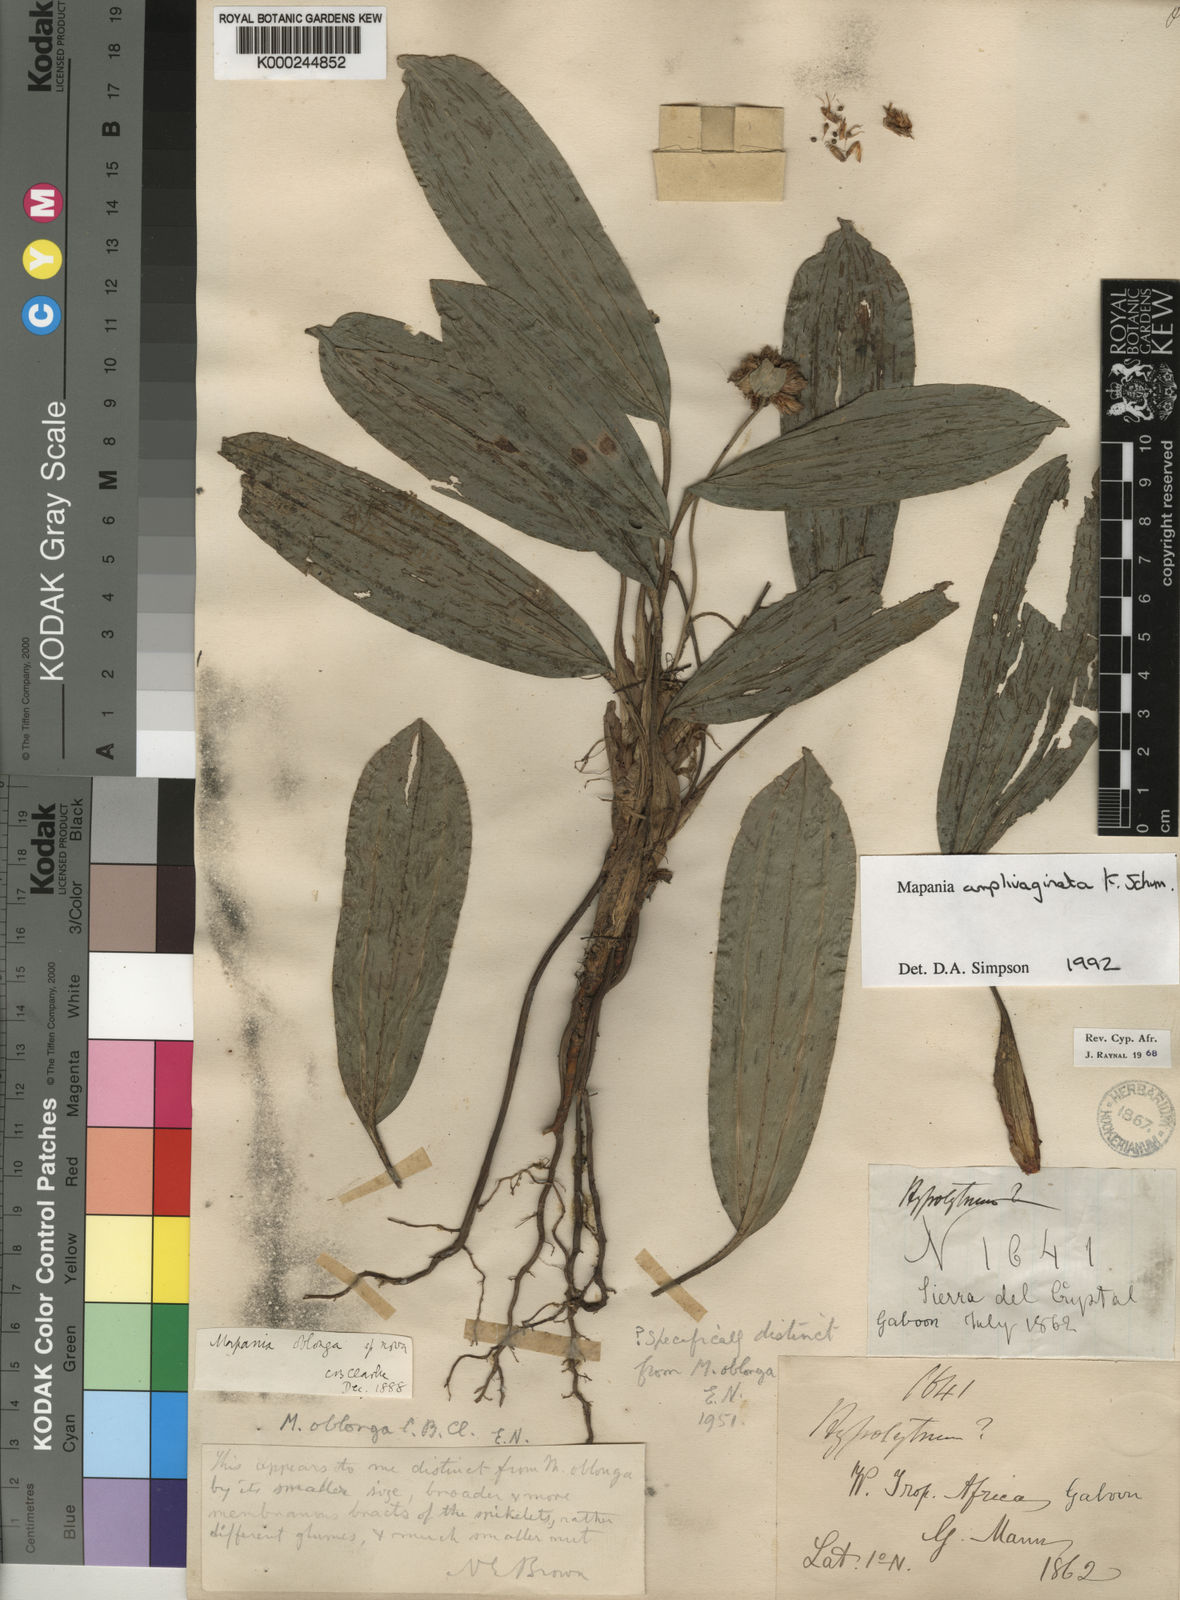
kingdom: Plantae
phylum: Tracheophyta
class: Liliopsida
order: Poales
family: Cyperaceae
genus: Mapania
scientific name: Mapania amplivaginata
